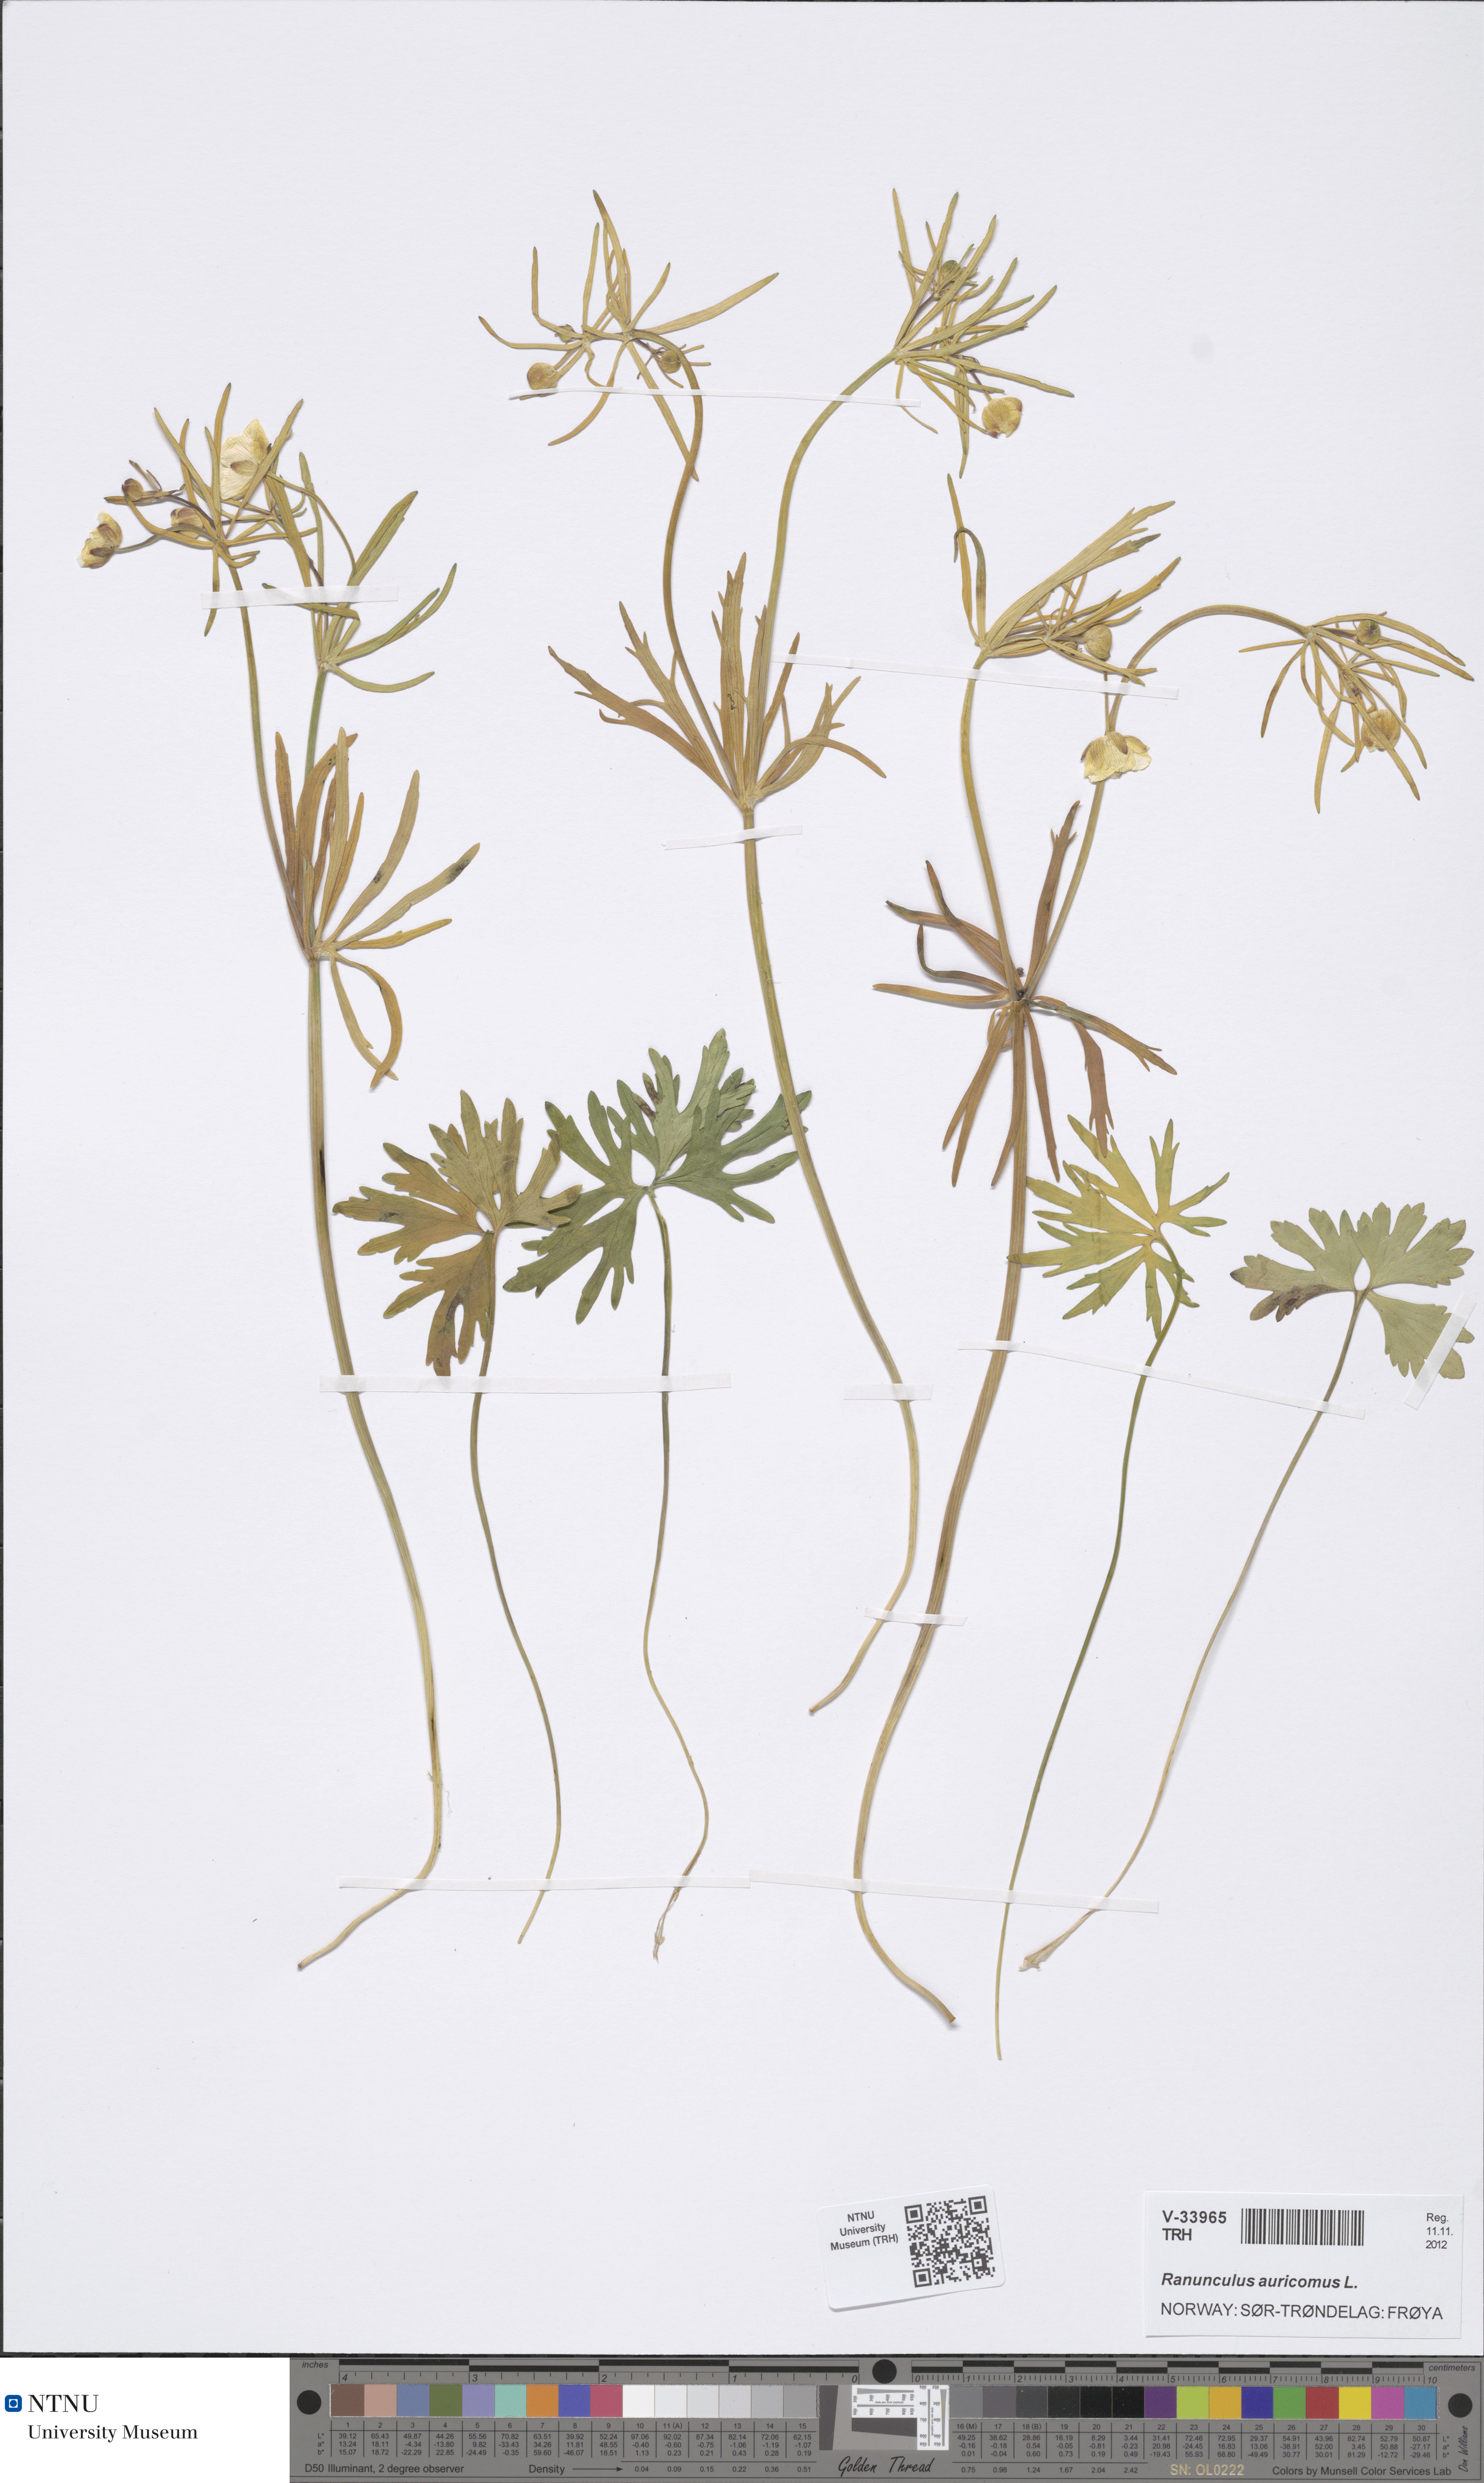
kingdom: Plantae
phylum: Tracheophyta
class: Magnoliopsida
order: Ranunculales
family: Ranunculaceae
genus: Ranunculus
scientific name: Ranunculus auricomus
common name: Goldilocks buttercup
